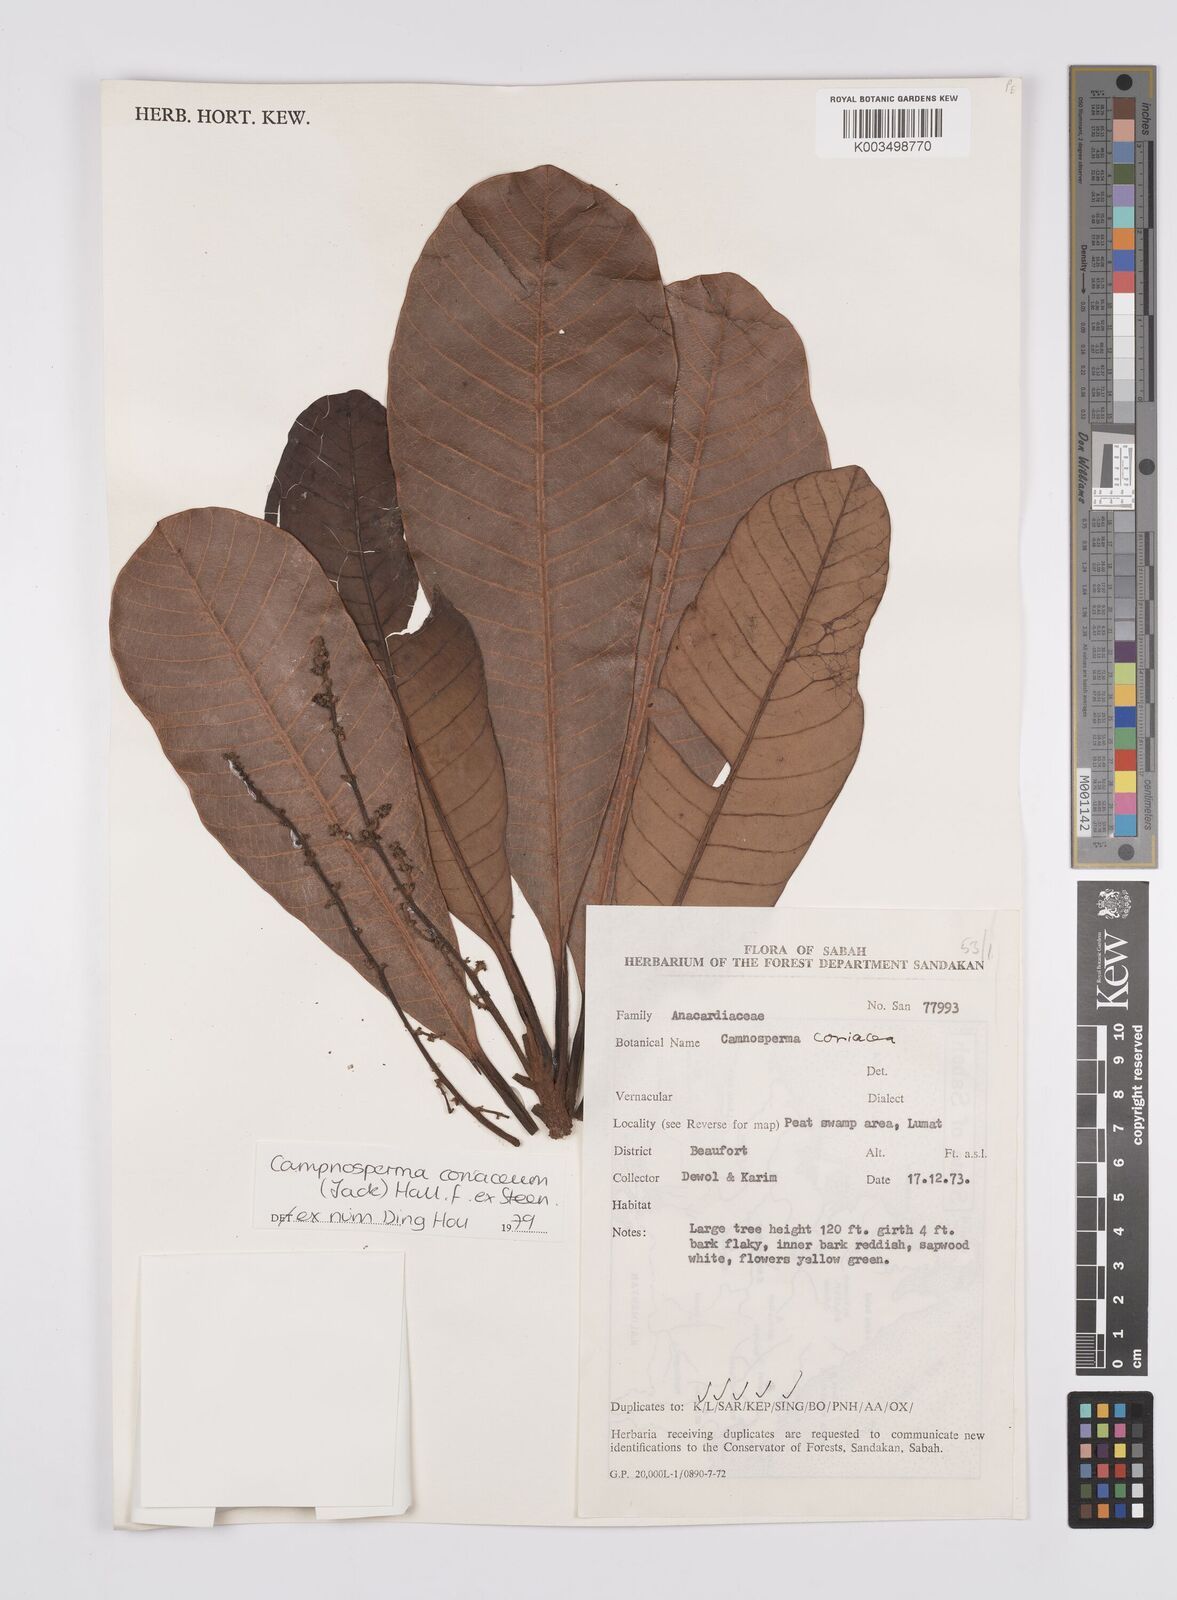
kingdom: Plantae
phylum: Tracheophyta
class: Magnoliopsida
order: Sapindales
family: Anacardiaceae
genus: Campnosperma
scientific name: Campnosperma coriaceum
